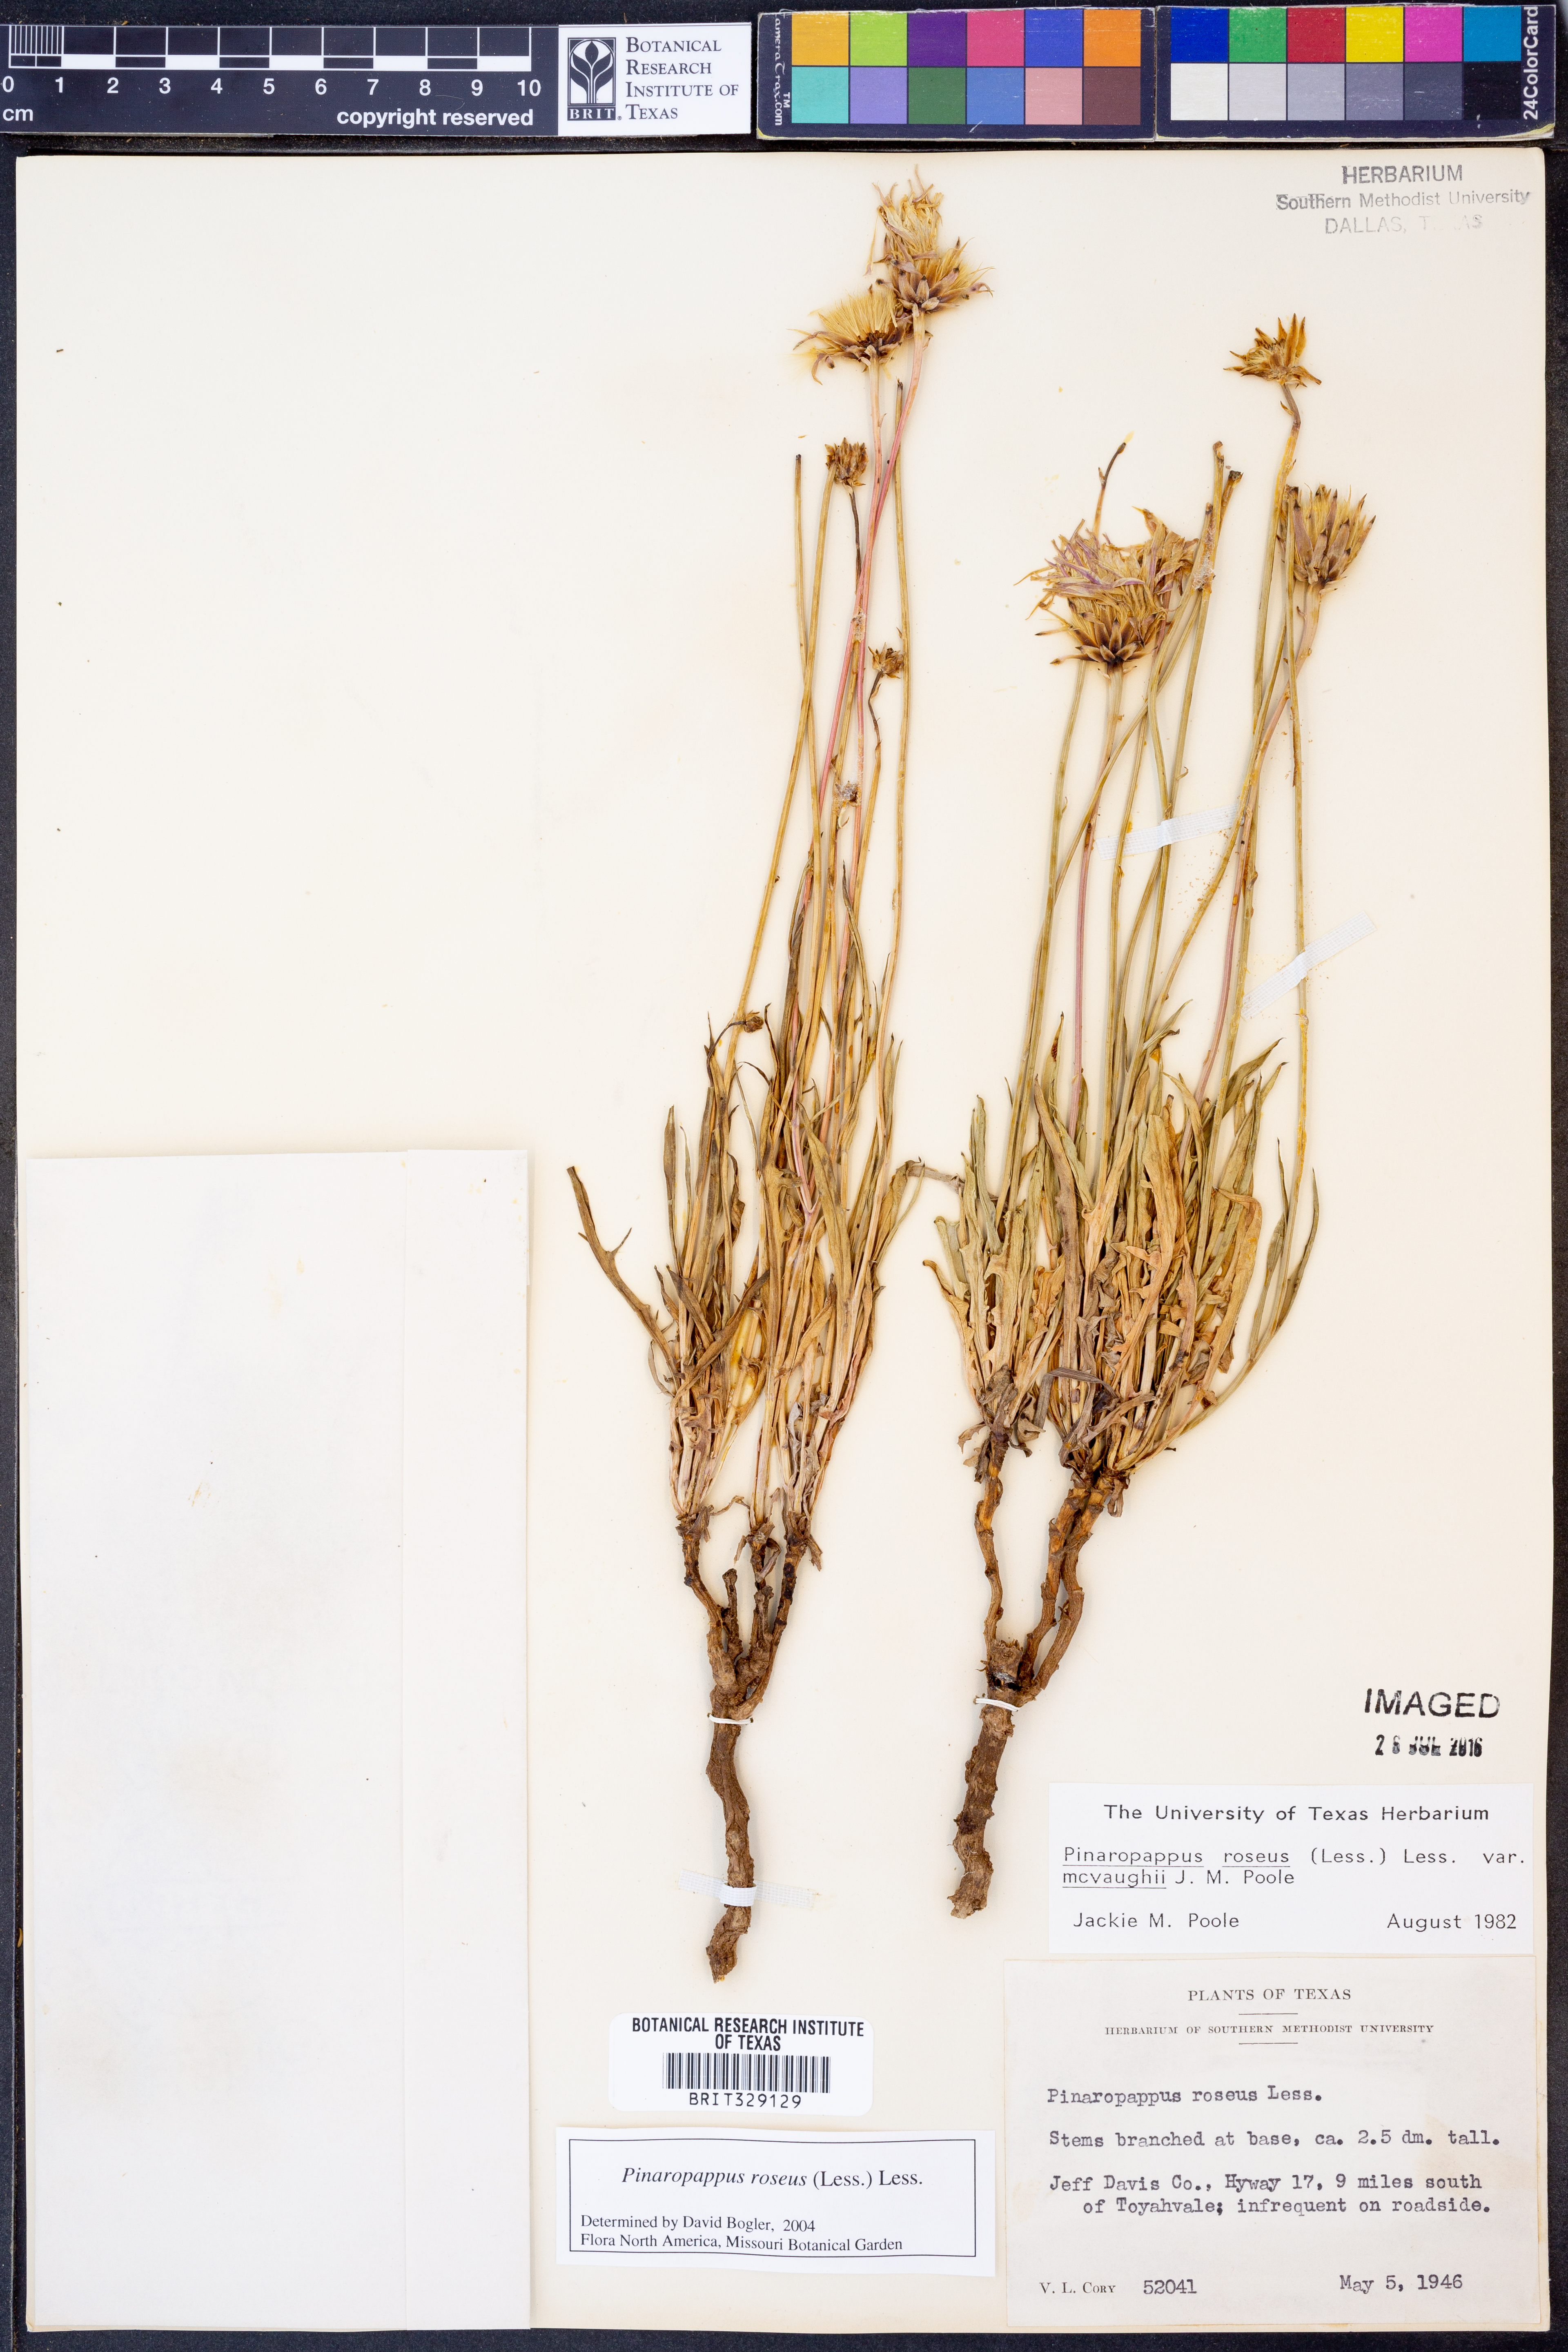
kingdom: Plantae
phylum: Tracheophyta
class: Magnoliopsida
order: Asterales
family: Asteraceae
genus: Pinaropappus
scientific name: Pinaropappus roseus
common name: Rock-lettuce
